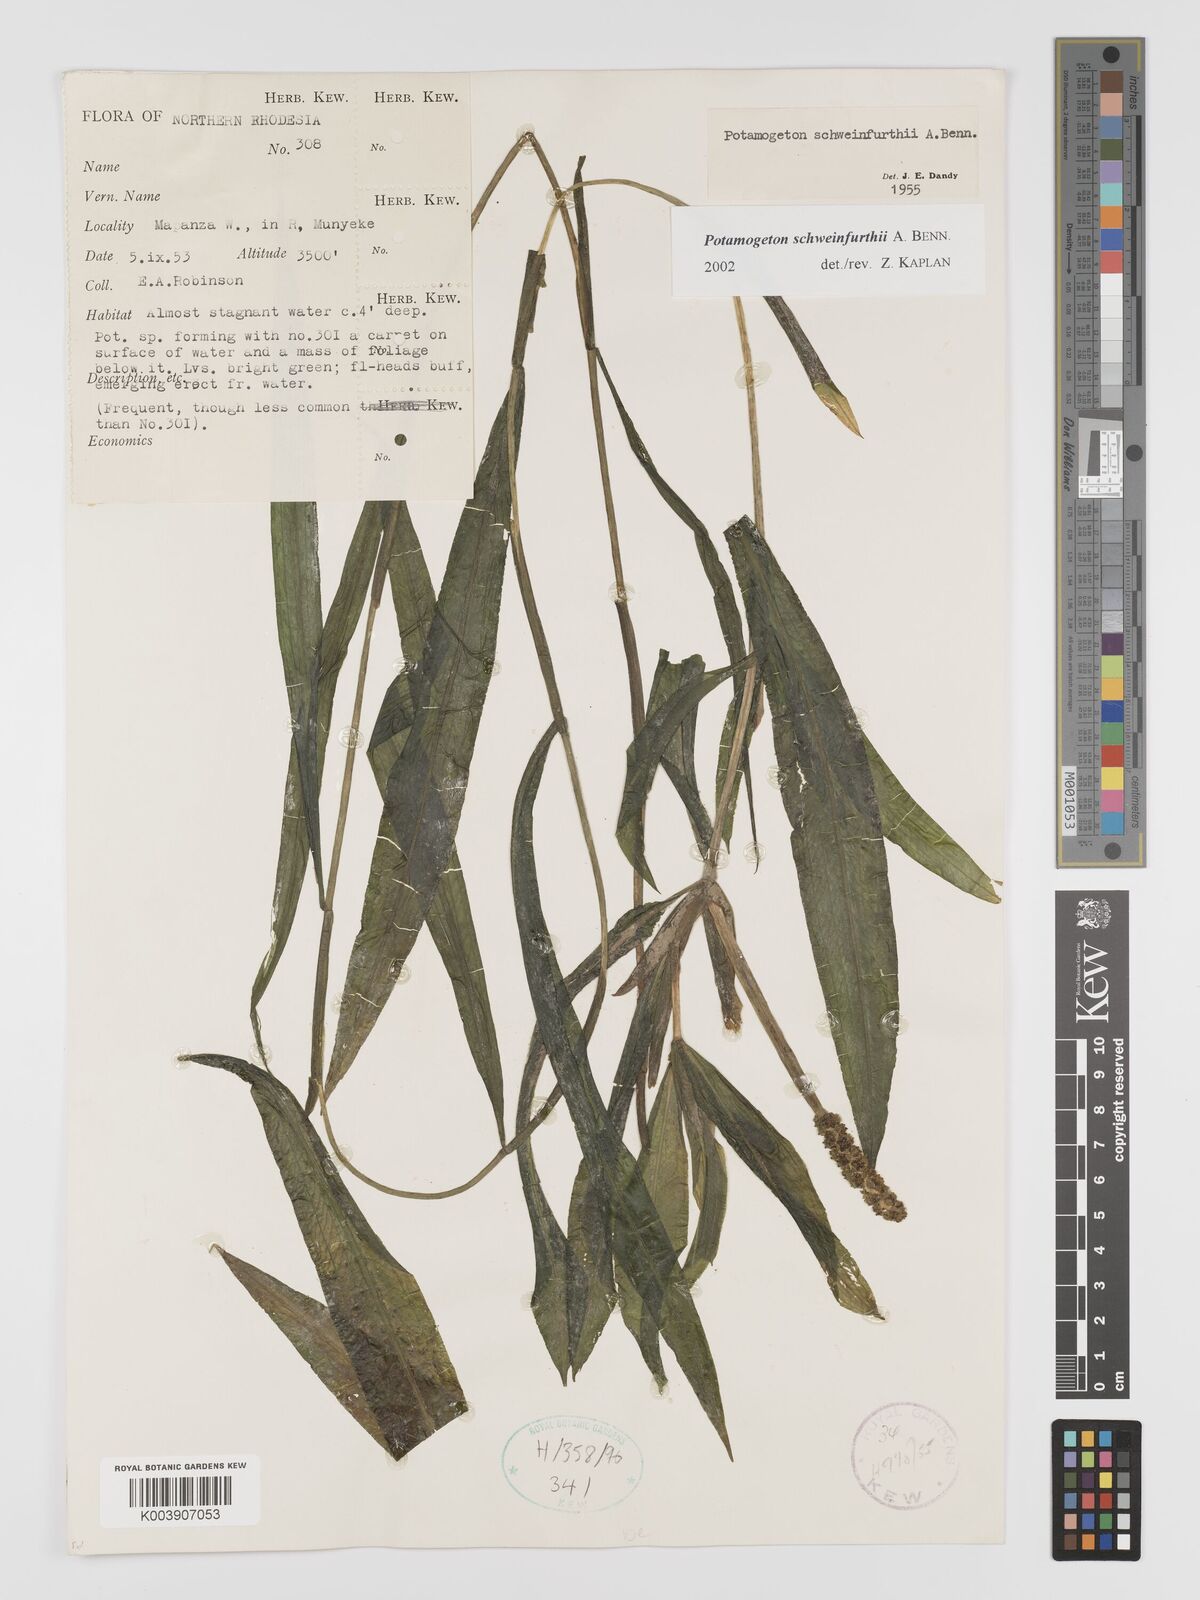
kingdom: Plantae
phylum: Tracheophyta
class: Liliopsida
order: Alismatales
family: Potamogetonaceae
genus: Potamogeton
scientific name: Potamogeton schweinfurthii
